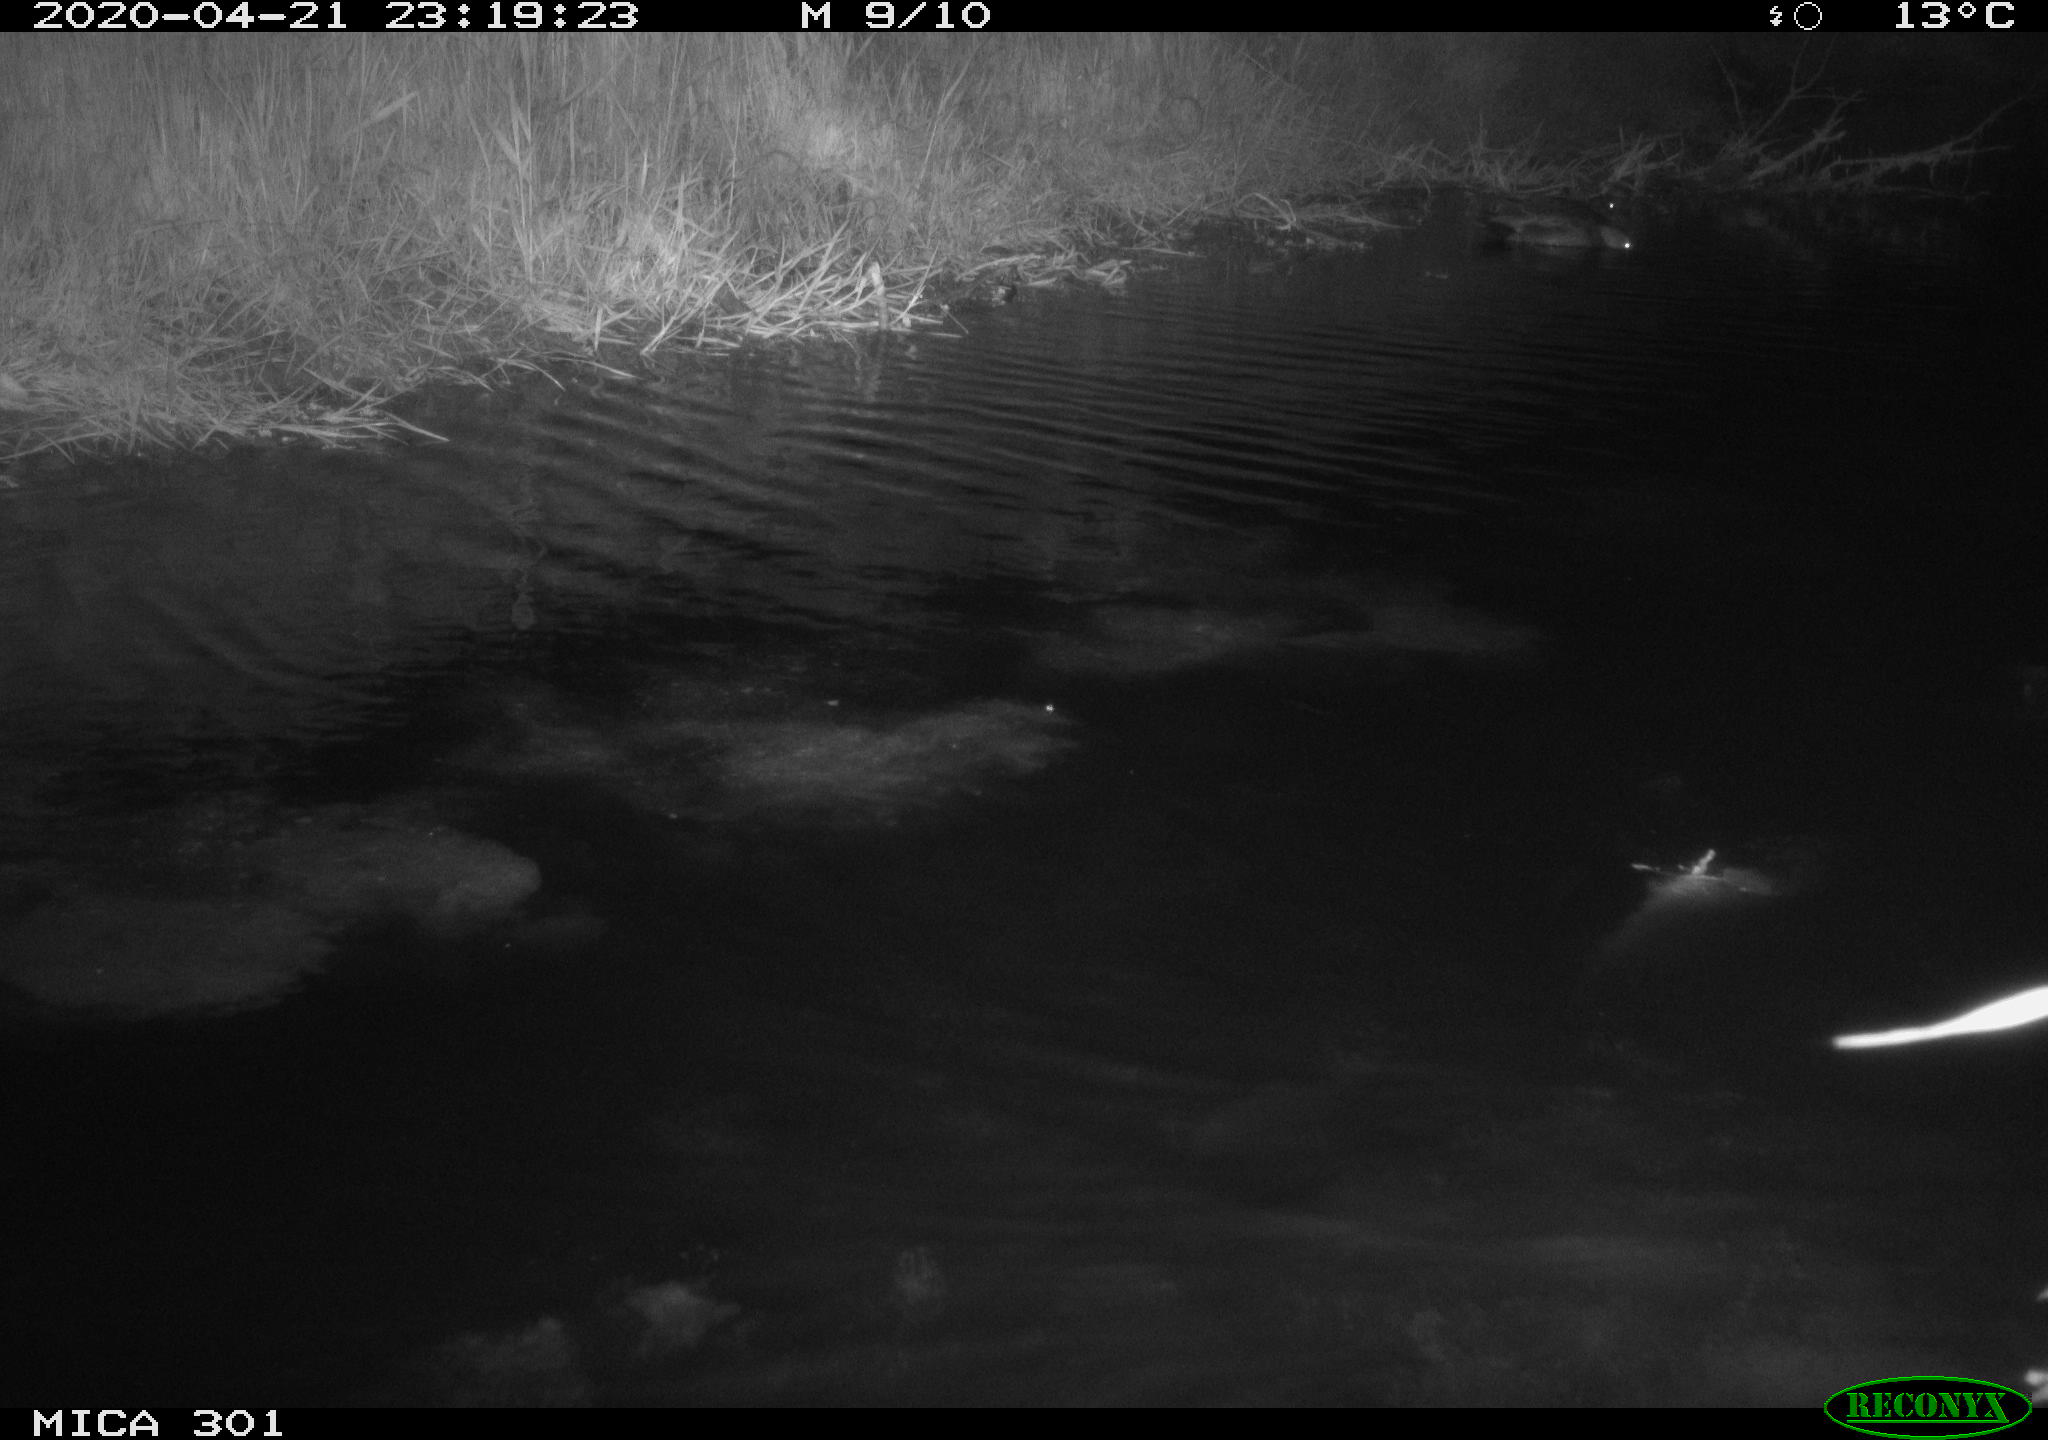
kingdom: Animalia
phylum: Chordata
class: Mammalia
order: Rodentia
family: Castoridae
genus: Castor
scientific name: Castor fiber
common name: Eurasian beaver
